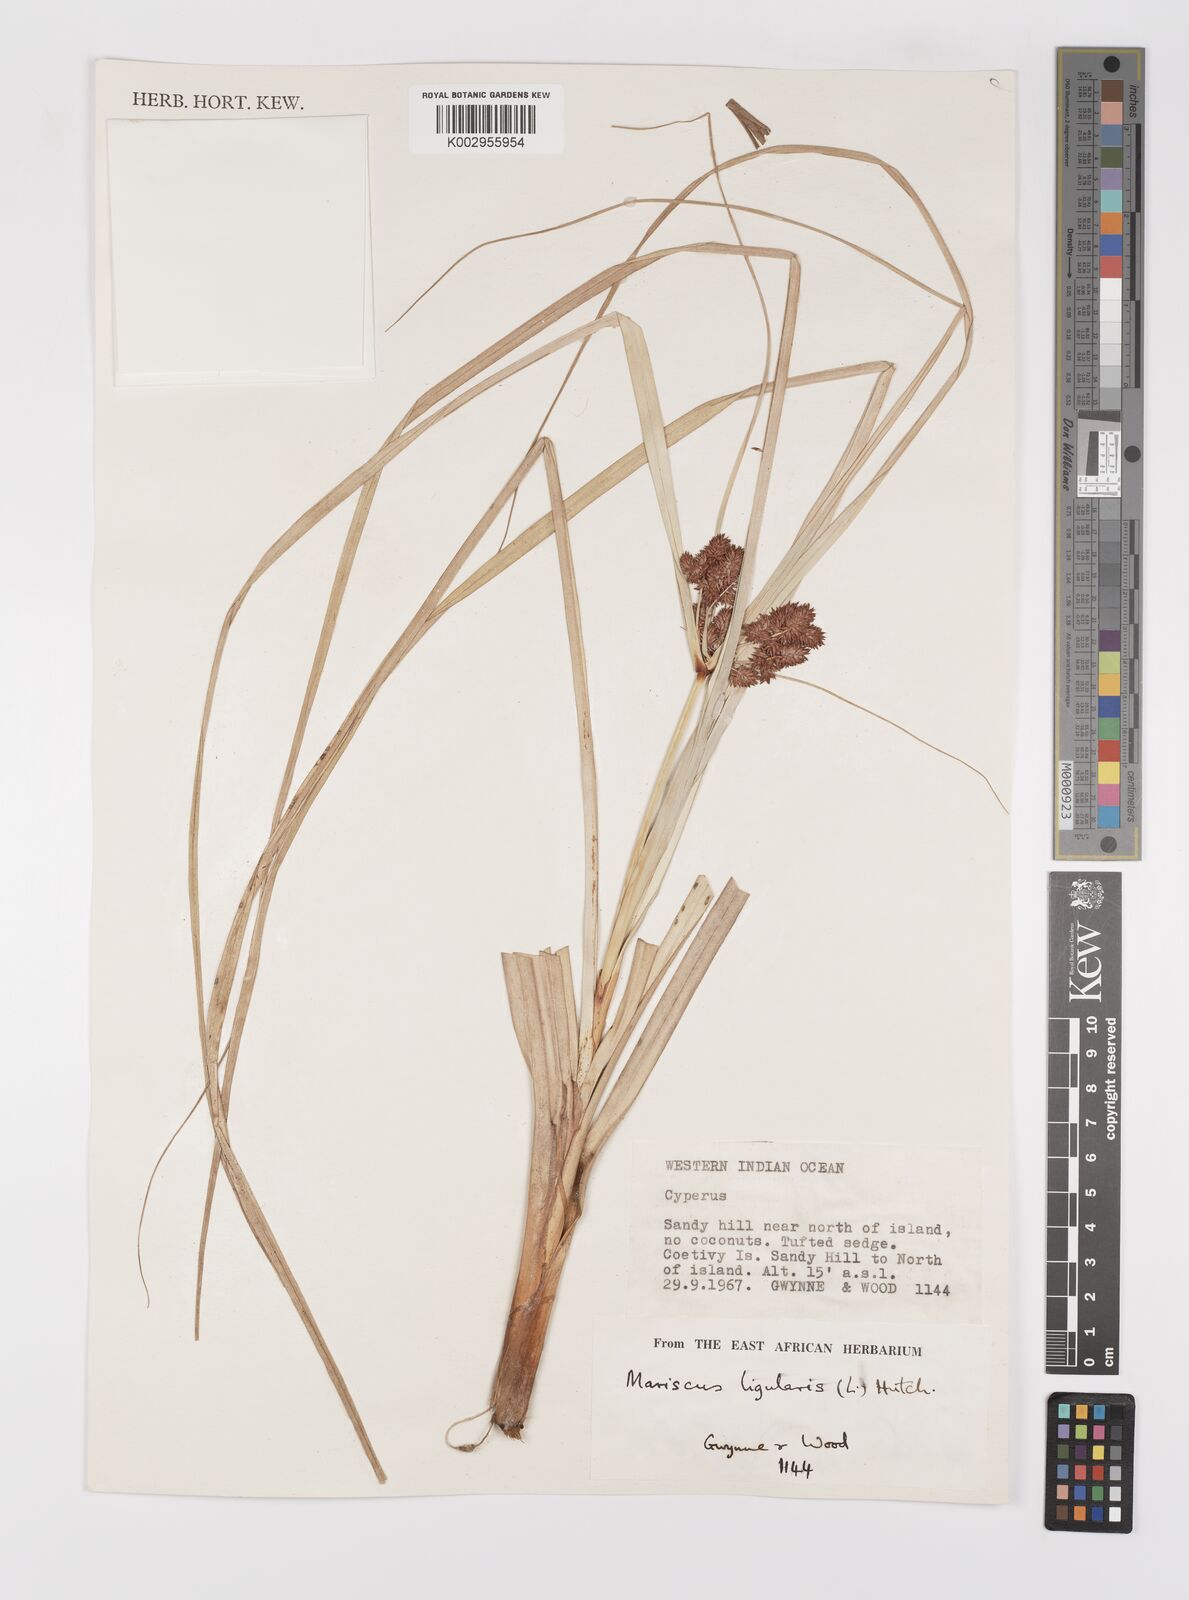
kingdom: Plantae
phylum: Tracheophyta
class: Liliopsida
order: Poales
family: Cyperaceae
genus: Cyperus
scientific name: Cyperus ligularis
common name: Swamp flat sedge
